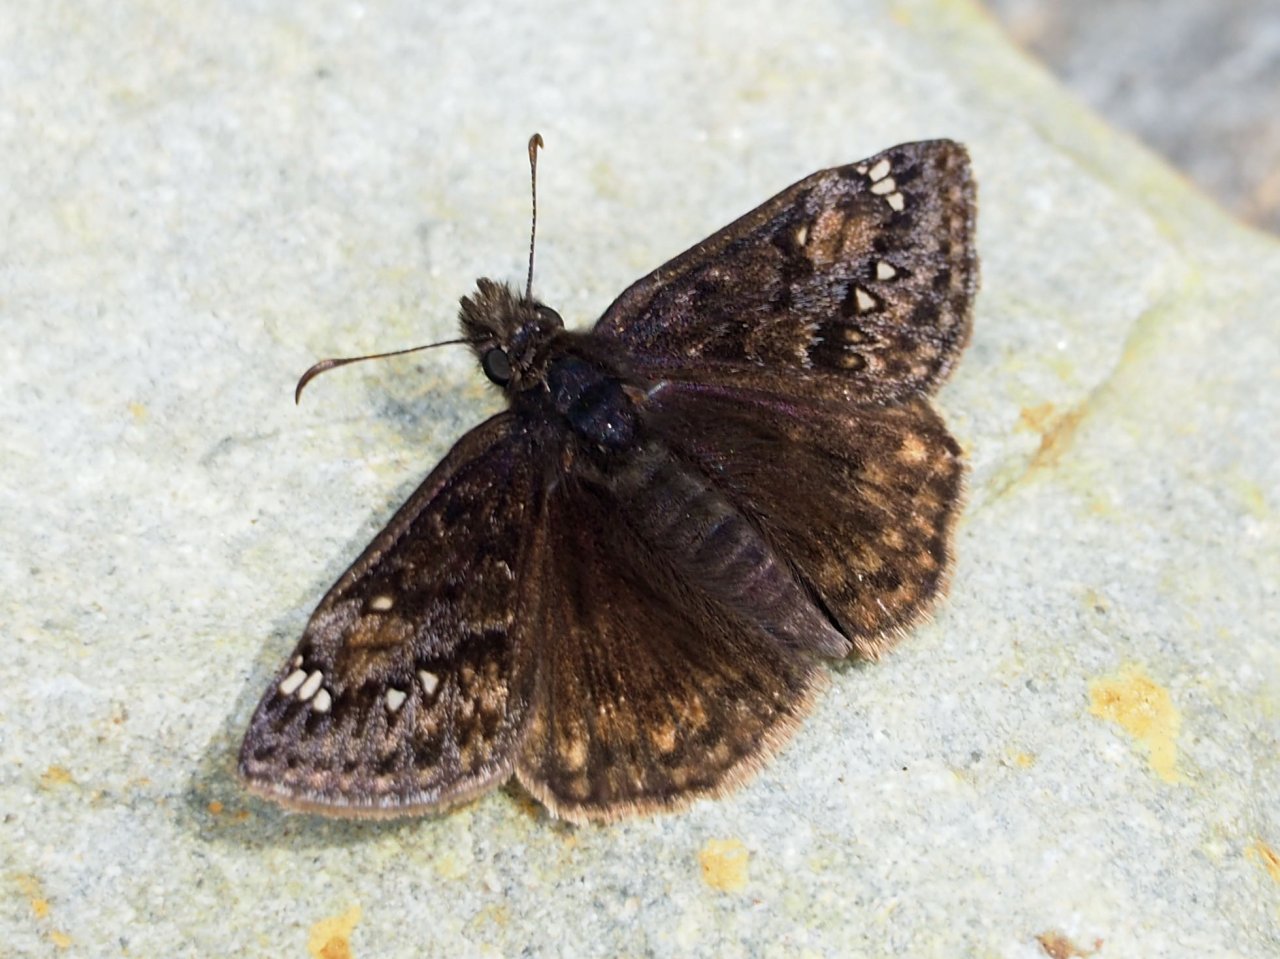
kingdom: Animalia
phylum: Arthropoda
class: Insecta
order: Lepidoptera
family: Hesperiidae
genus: Gesta
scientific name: Gesta
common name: Juvenal's Duskywing
